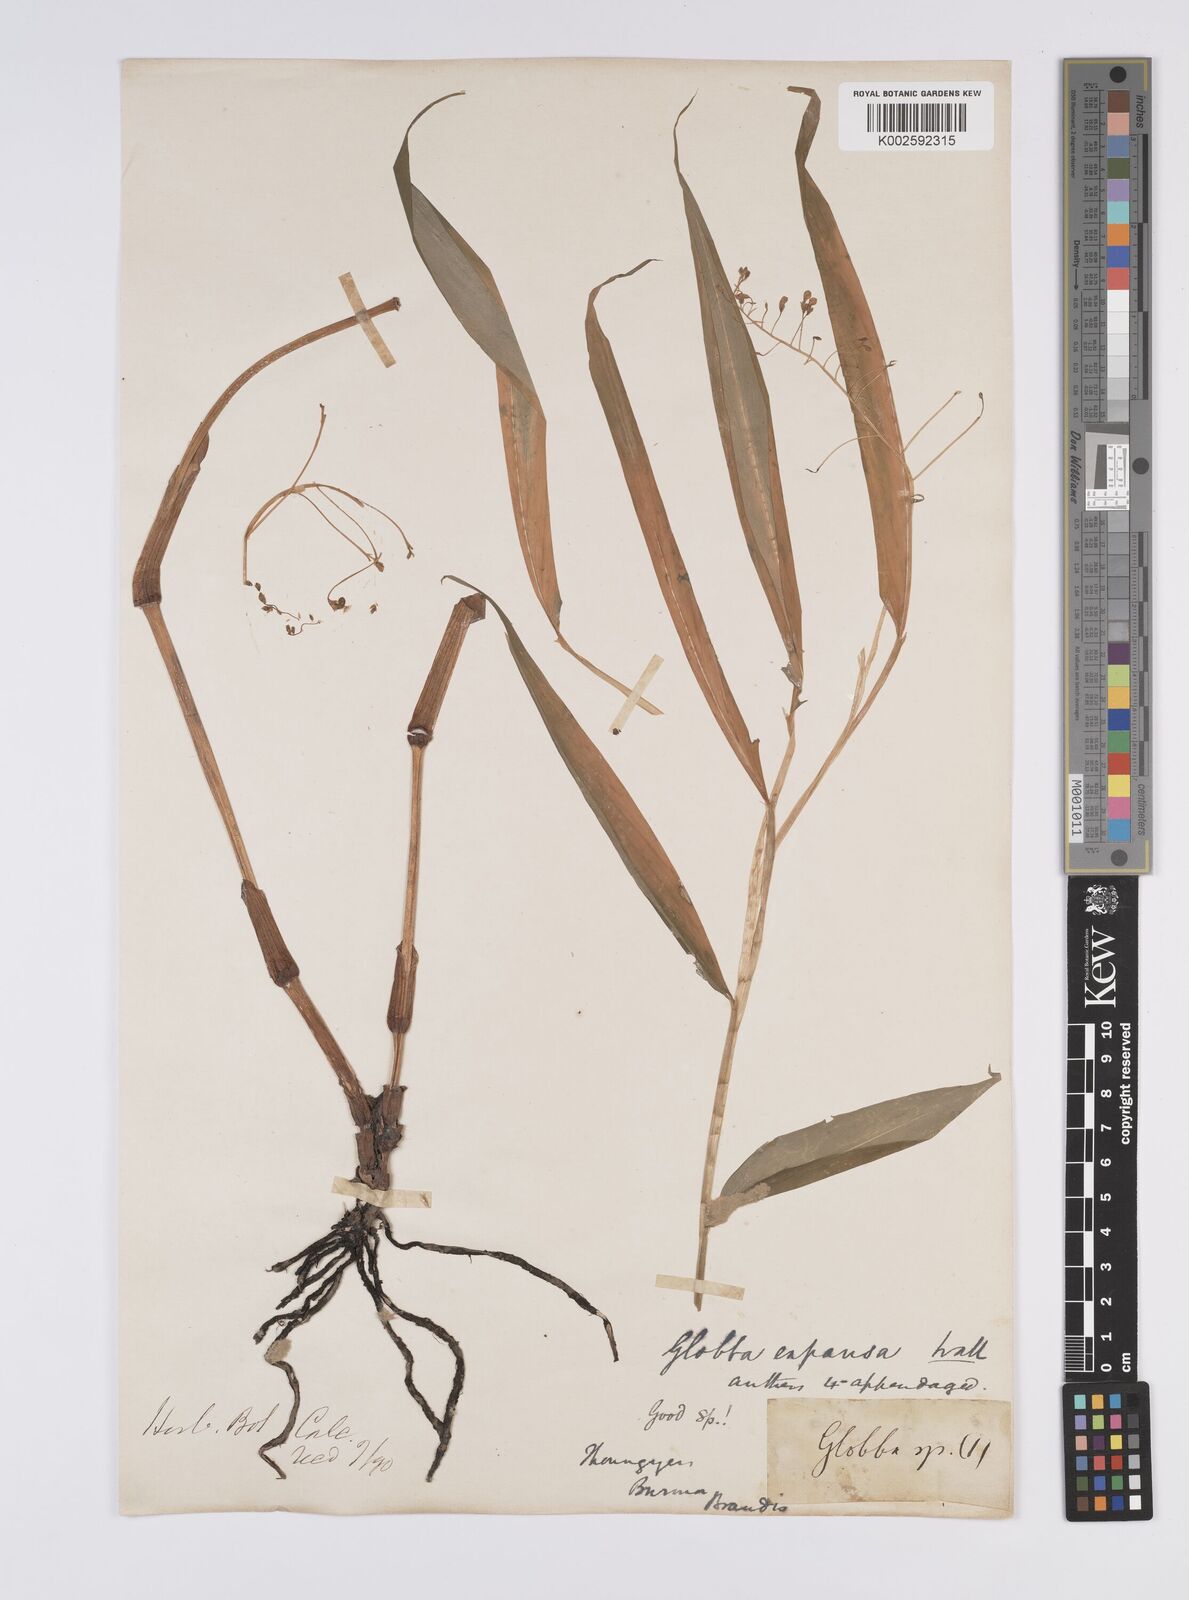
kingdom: Plantae
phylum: Tracheophyta
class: Liliopsida
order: Zingiberales
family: Zingiberaceae
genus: Globba
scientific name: Globba pendula
